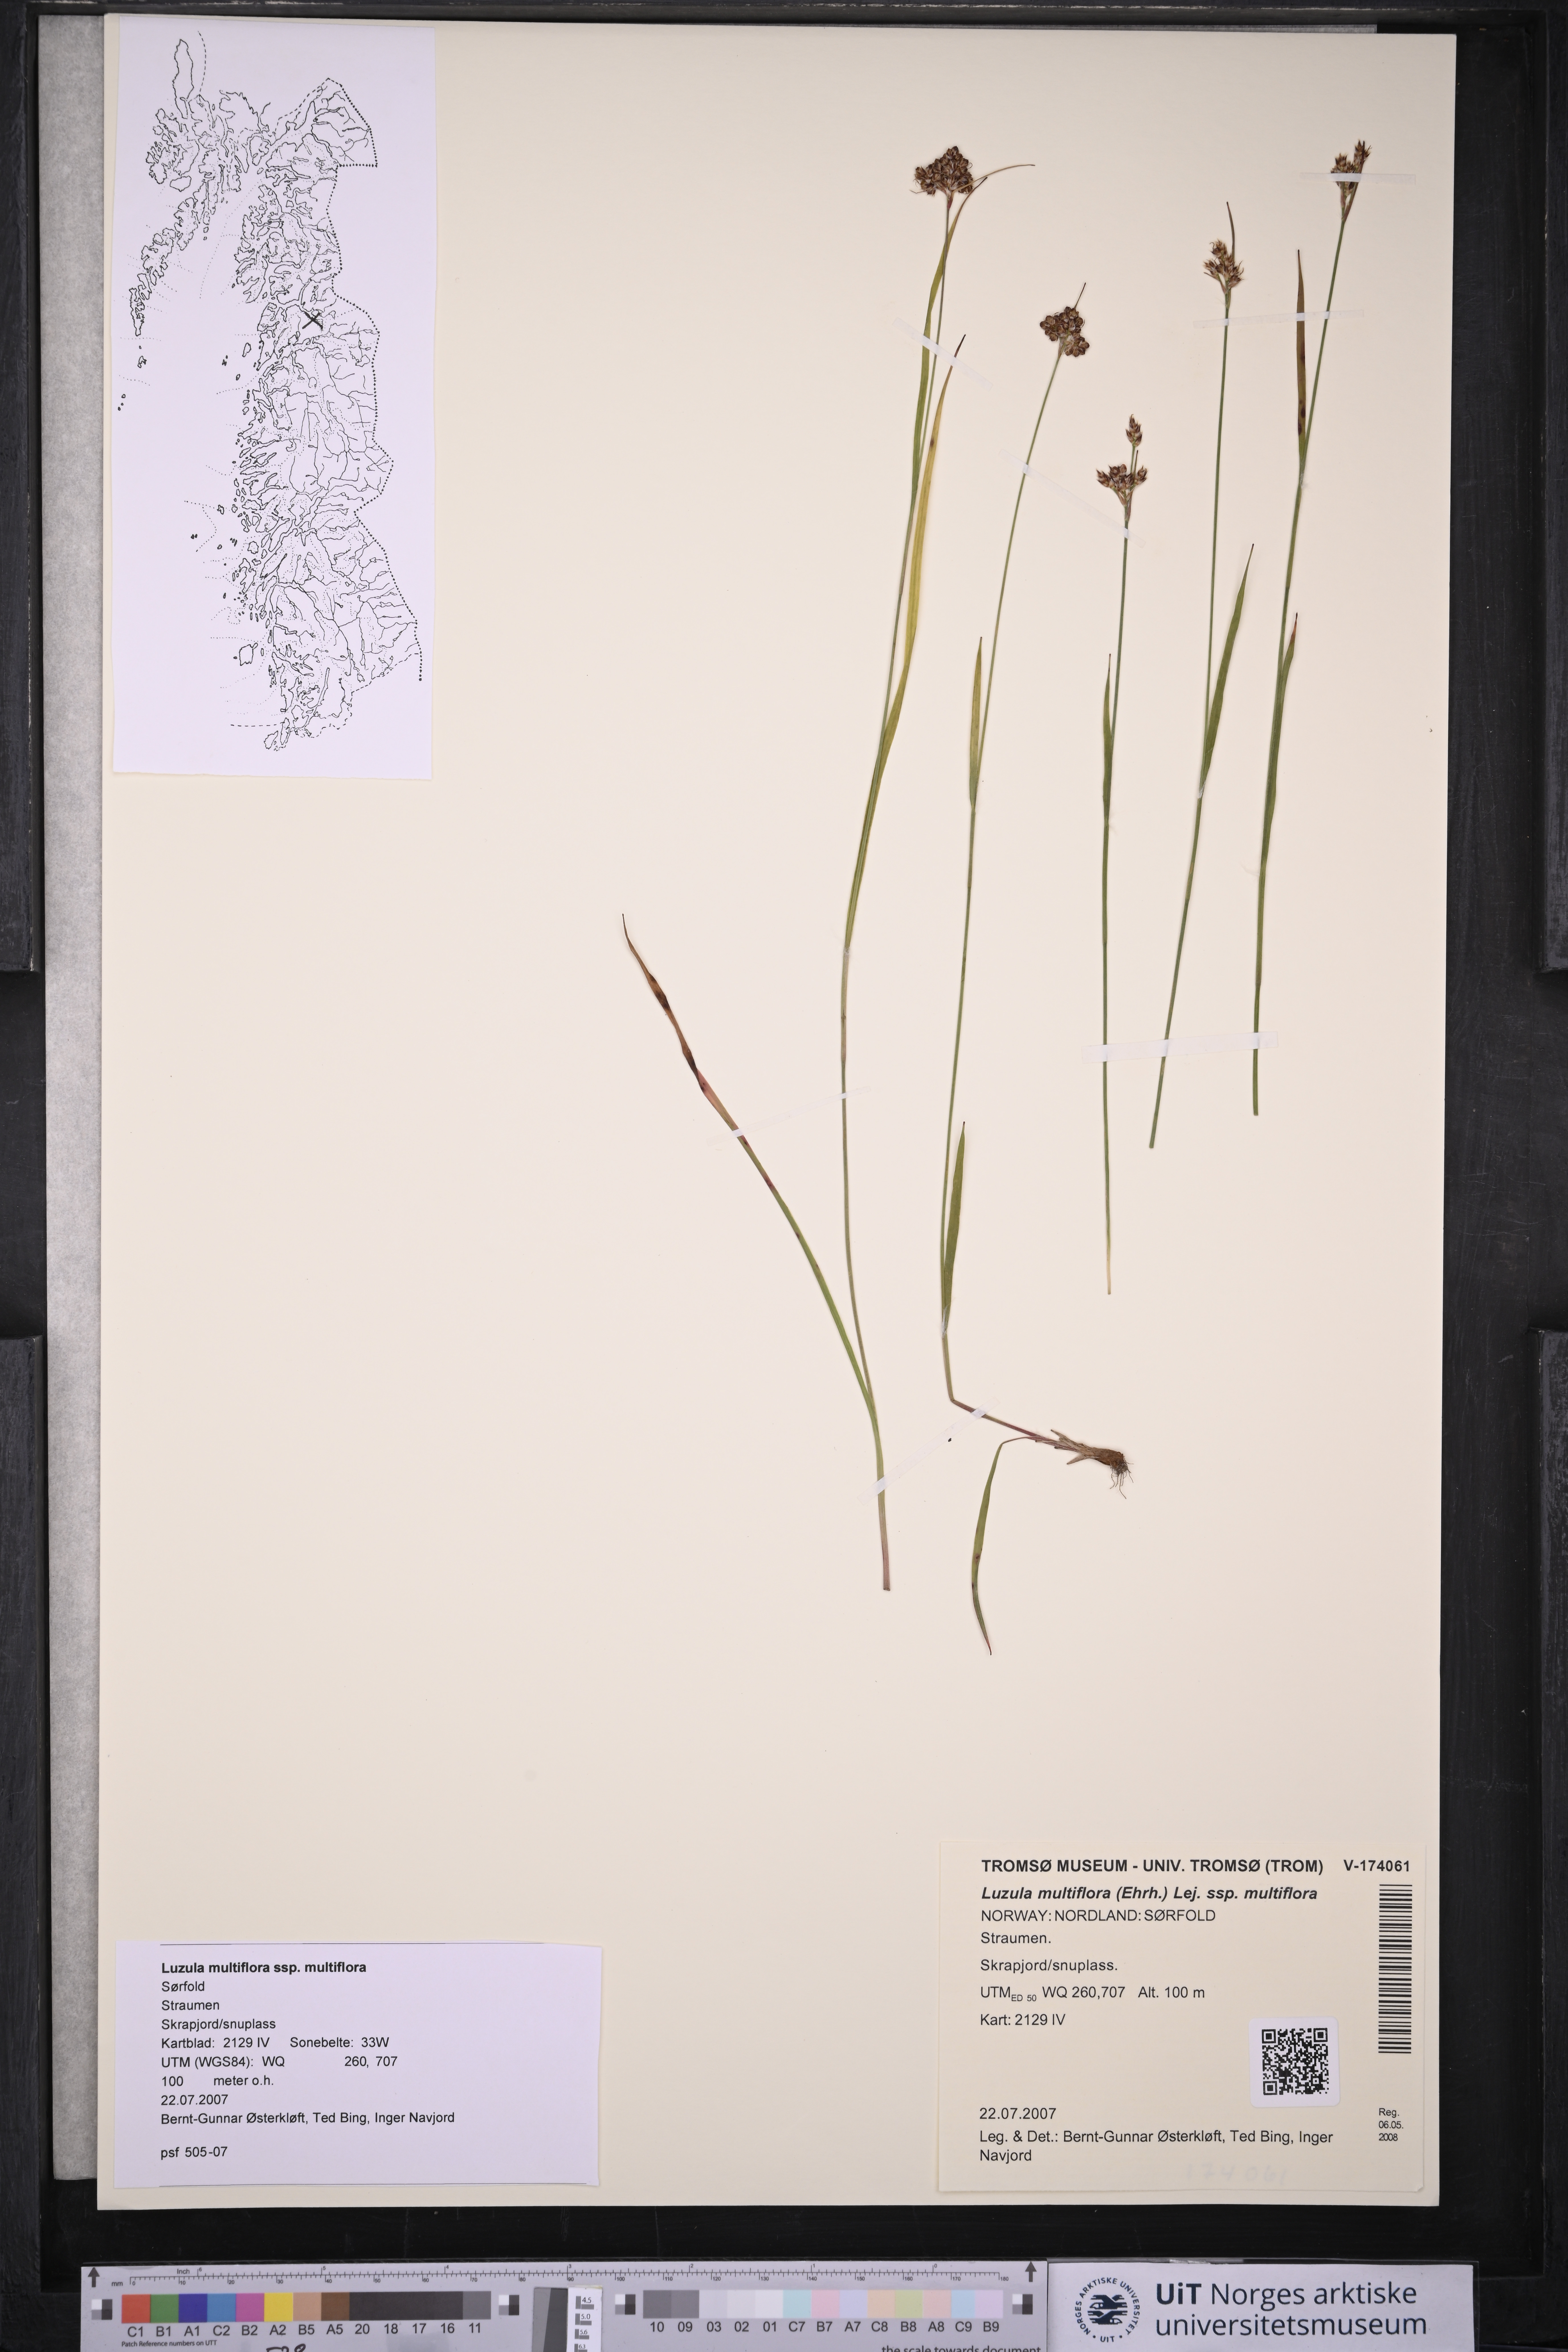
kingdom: Plantae
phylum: Tracheophyta
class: Liliopsida
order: Poales
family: Juncaceae
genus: Luzula
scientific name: Luzula multiflora
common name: Heath wood-rush
